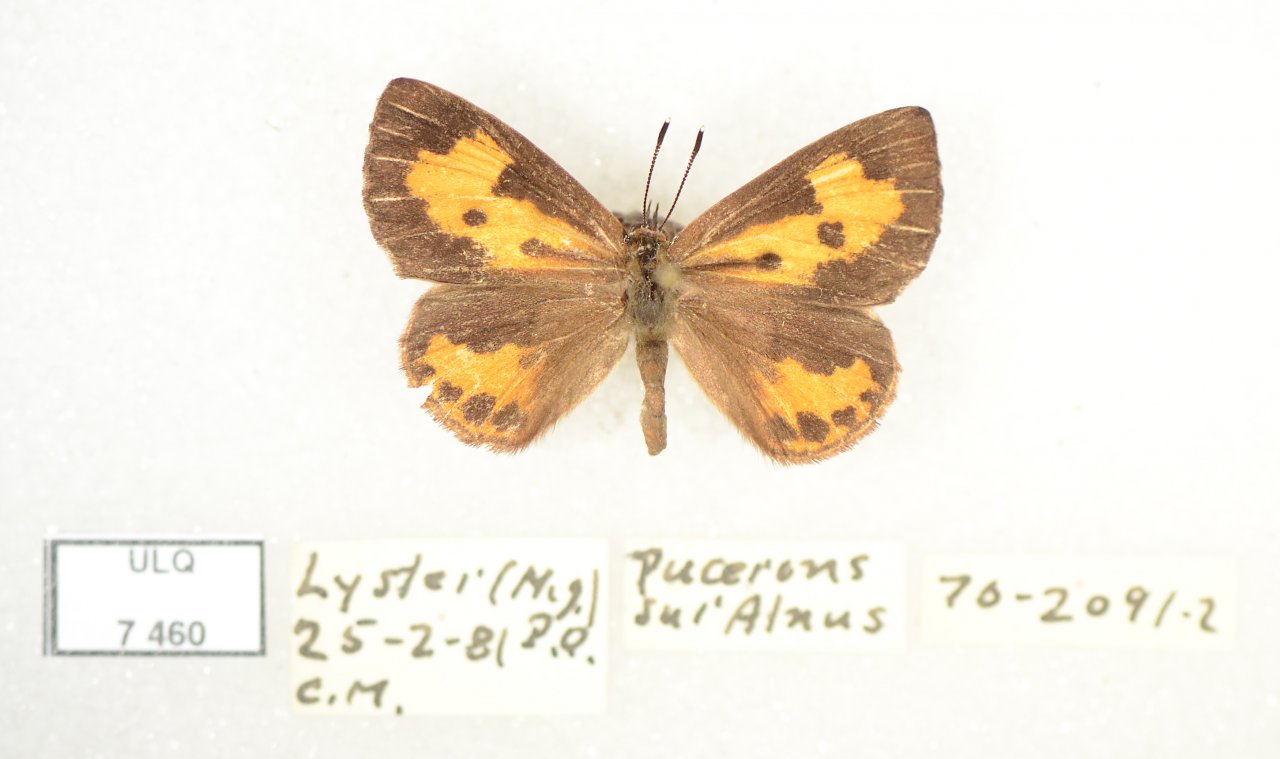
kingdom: Animalia
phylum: Arthropoda
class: Insecta
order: Lepidoptera
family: Lycaenidae
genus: Feniseca
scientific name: Feniseca tarquinius
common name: Harvester
